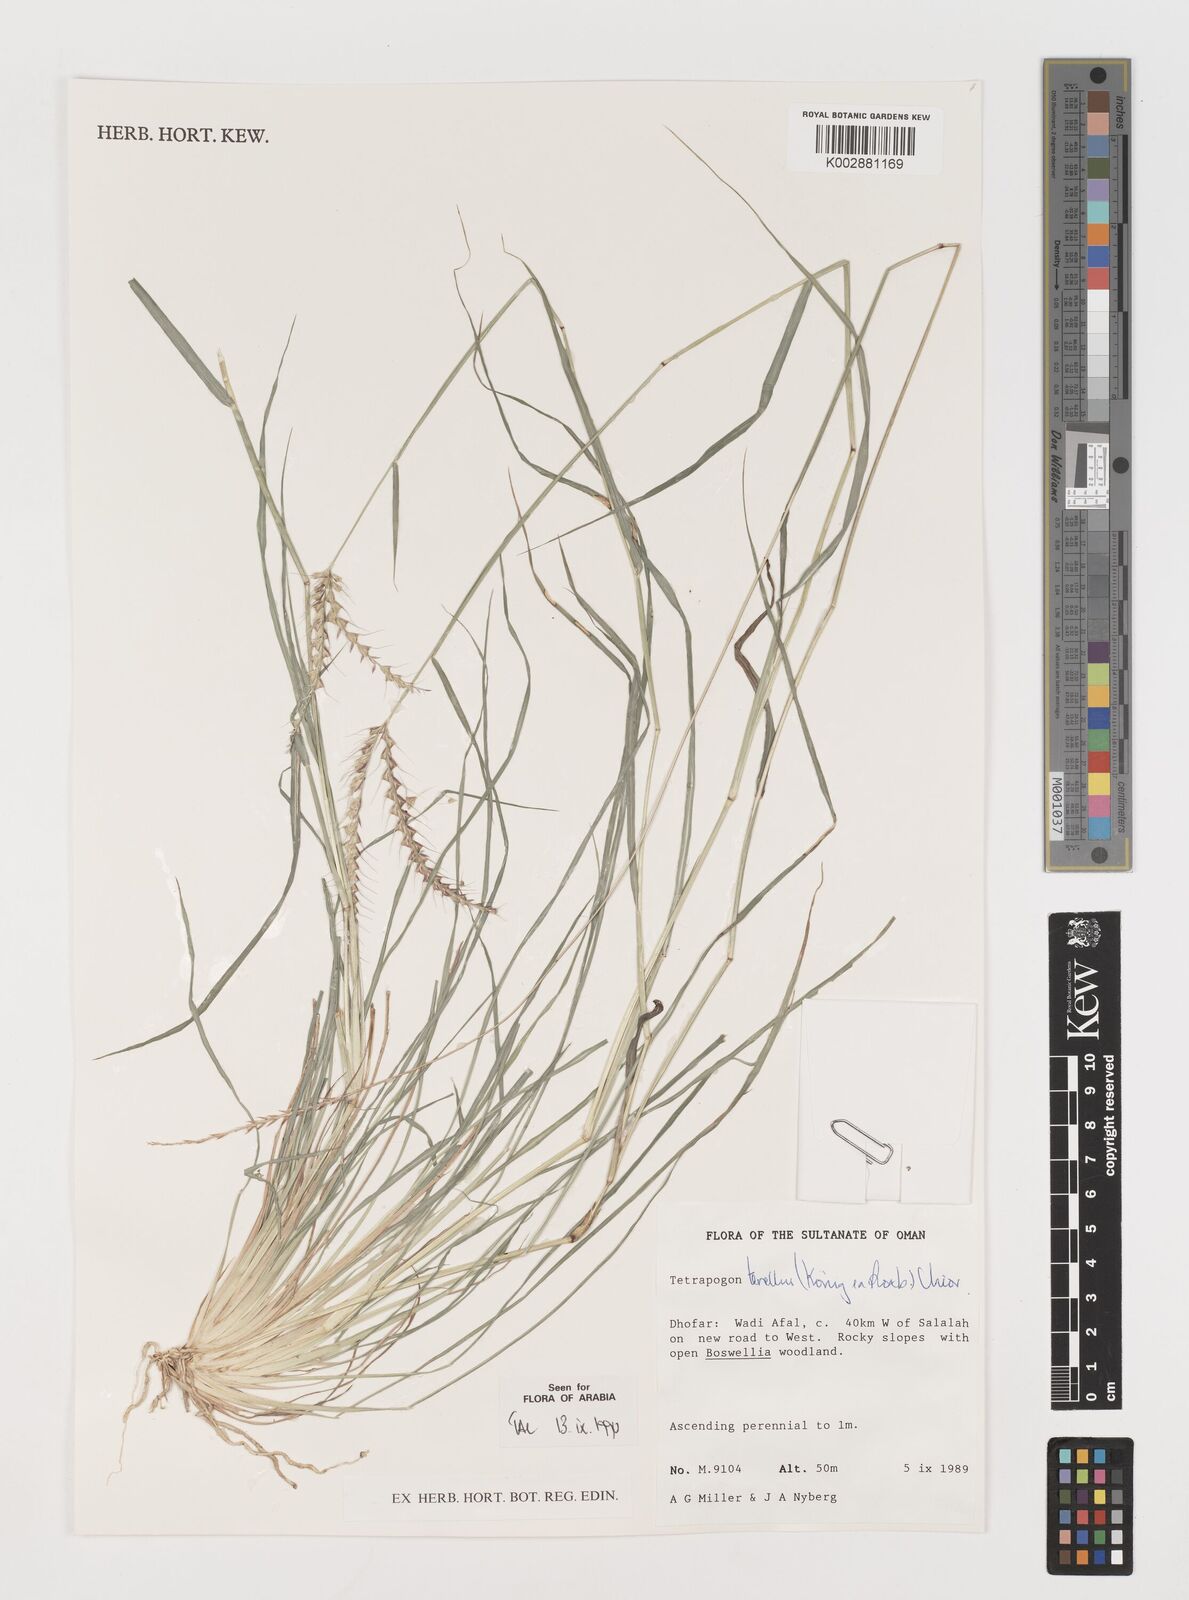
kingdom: Plantae
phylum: Tracheophyta
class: Liliopsida
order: Poales
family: Poaceae
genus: Tetrapogon
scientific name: Tetrapogon tenellus
